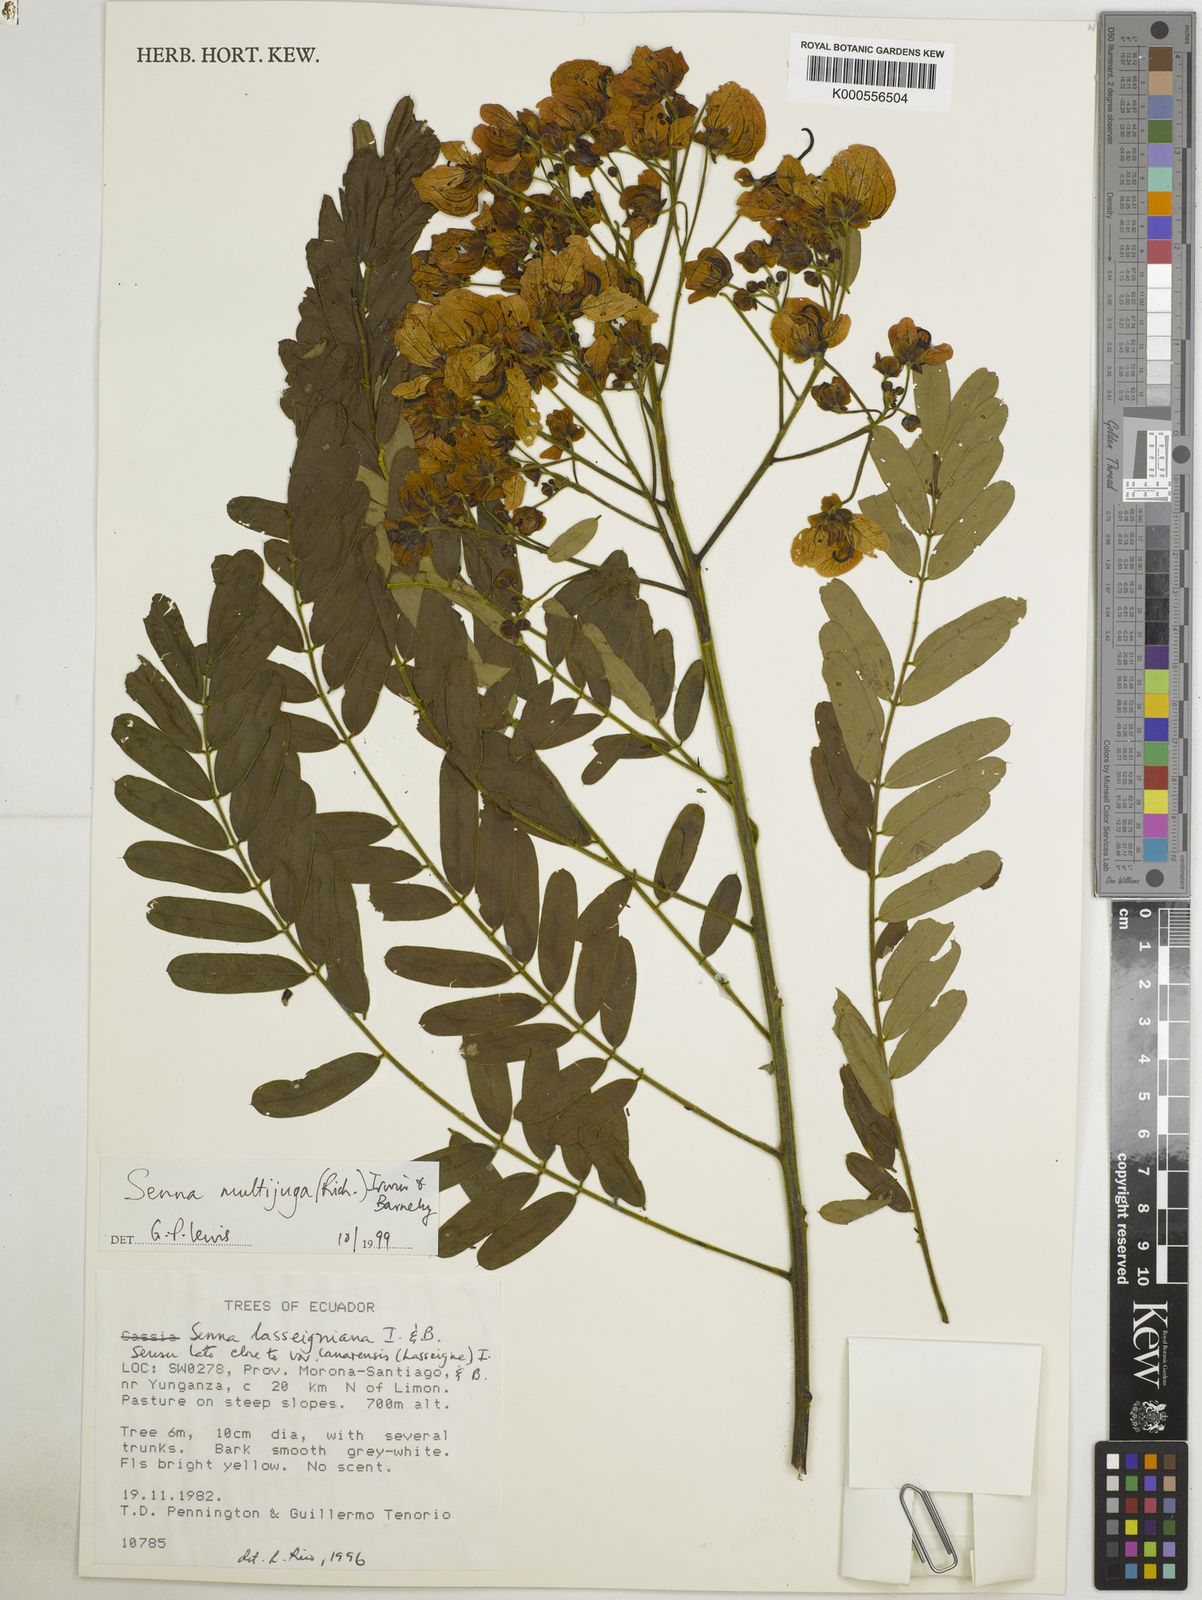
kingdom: Plantae
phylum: Tracheophyta
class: Magnoliopsida
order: Fabales
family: Fabaceae
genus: Senna
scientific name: Senna multijuga
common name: False sicklepod
